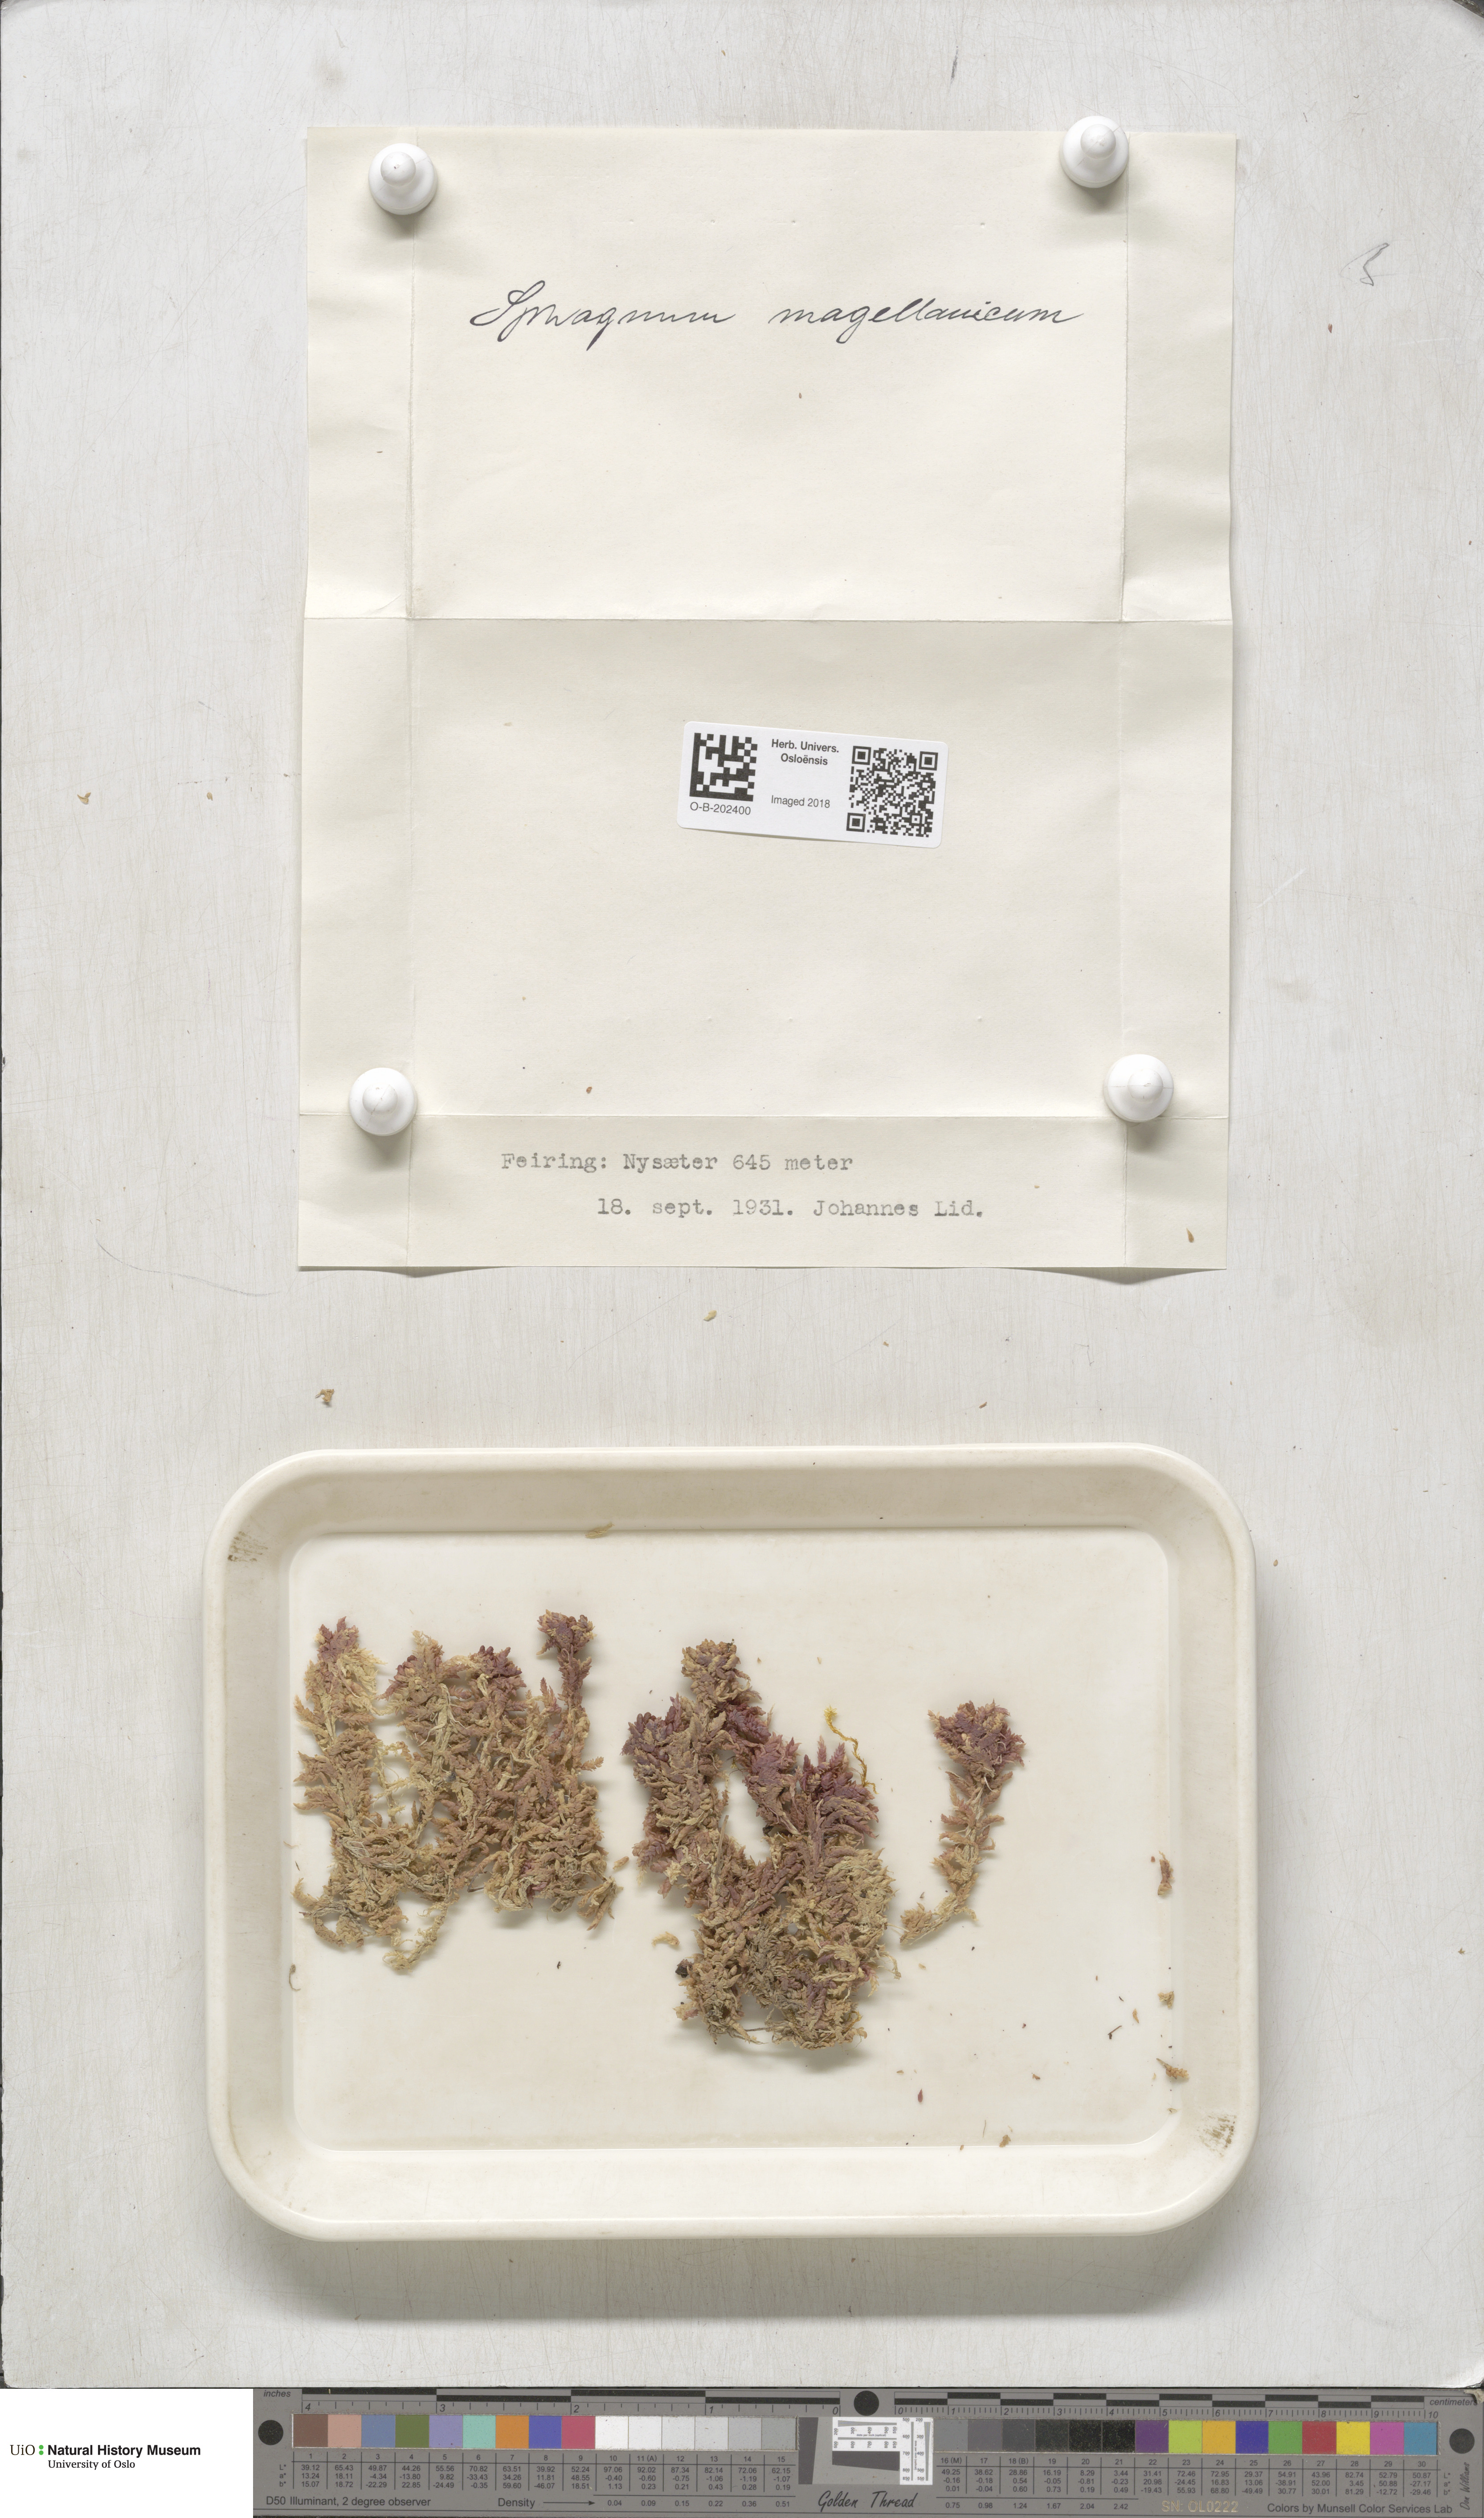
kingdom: Plantae
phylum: Bryophyta
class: Sphagnopsida
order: Sphagnales
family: Sphagnaceae
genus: Sphagnum
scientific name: Sphagnum magellanicum
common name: Magellan's peat moss
